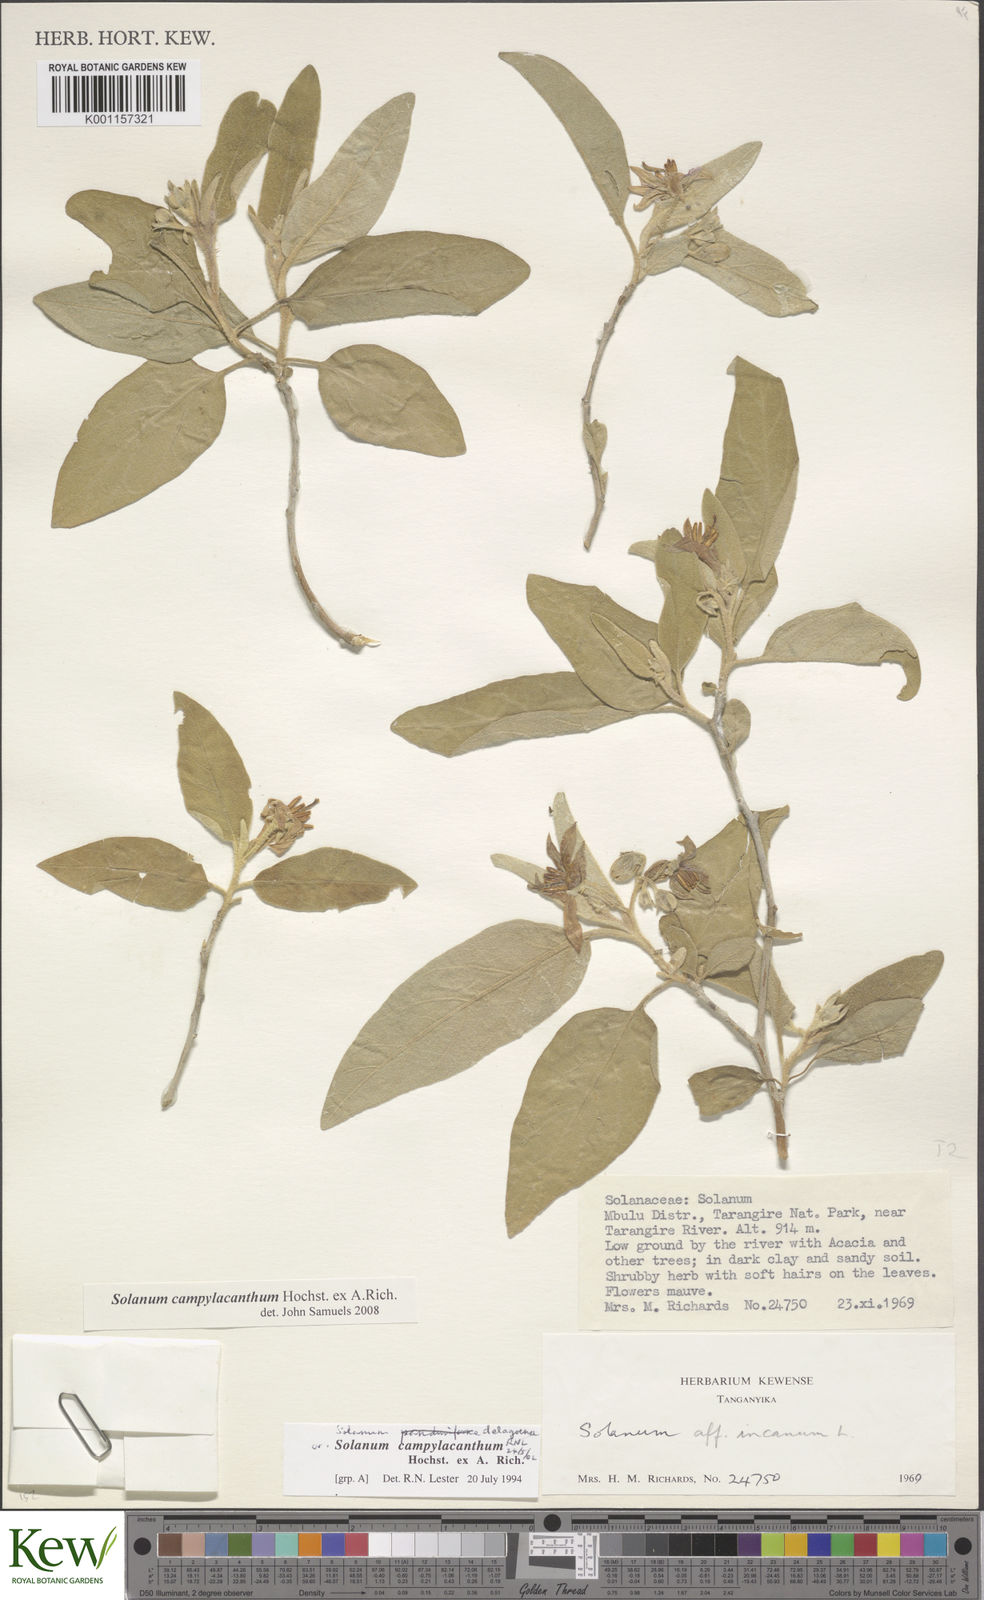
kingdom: Plantae
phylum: Tracheophyta
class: Magnoliopsida
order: Solanales
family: Solanaceae
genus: Solanum
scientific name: Solanum campylacanthum
